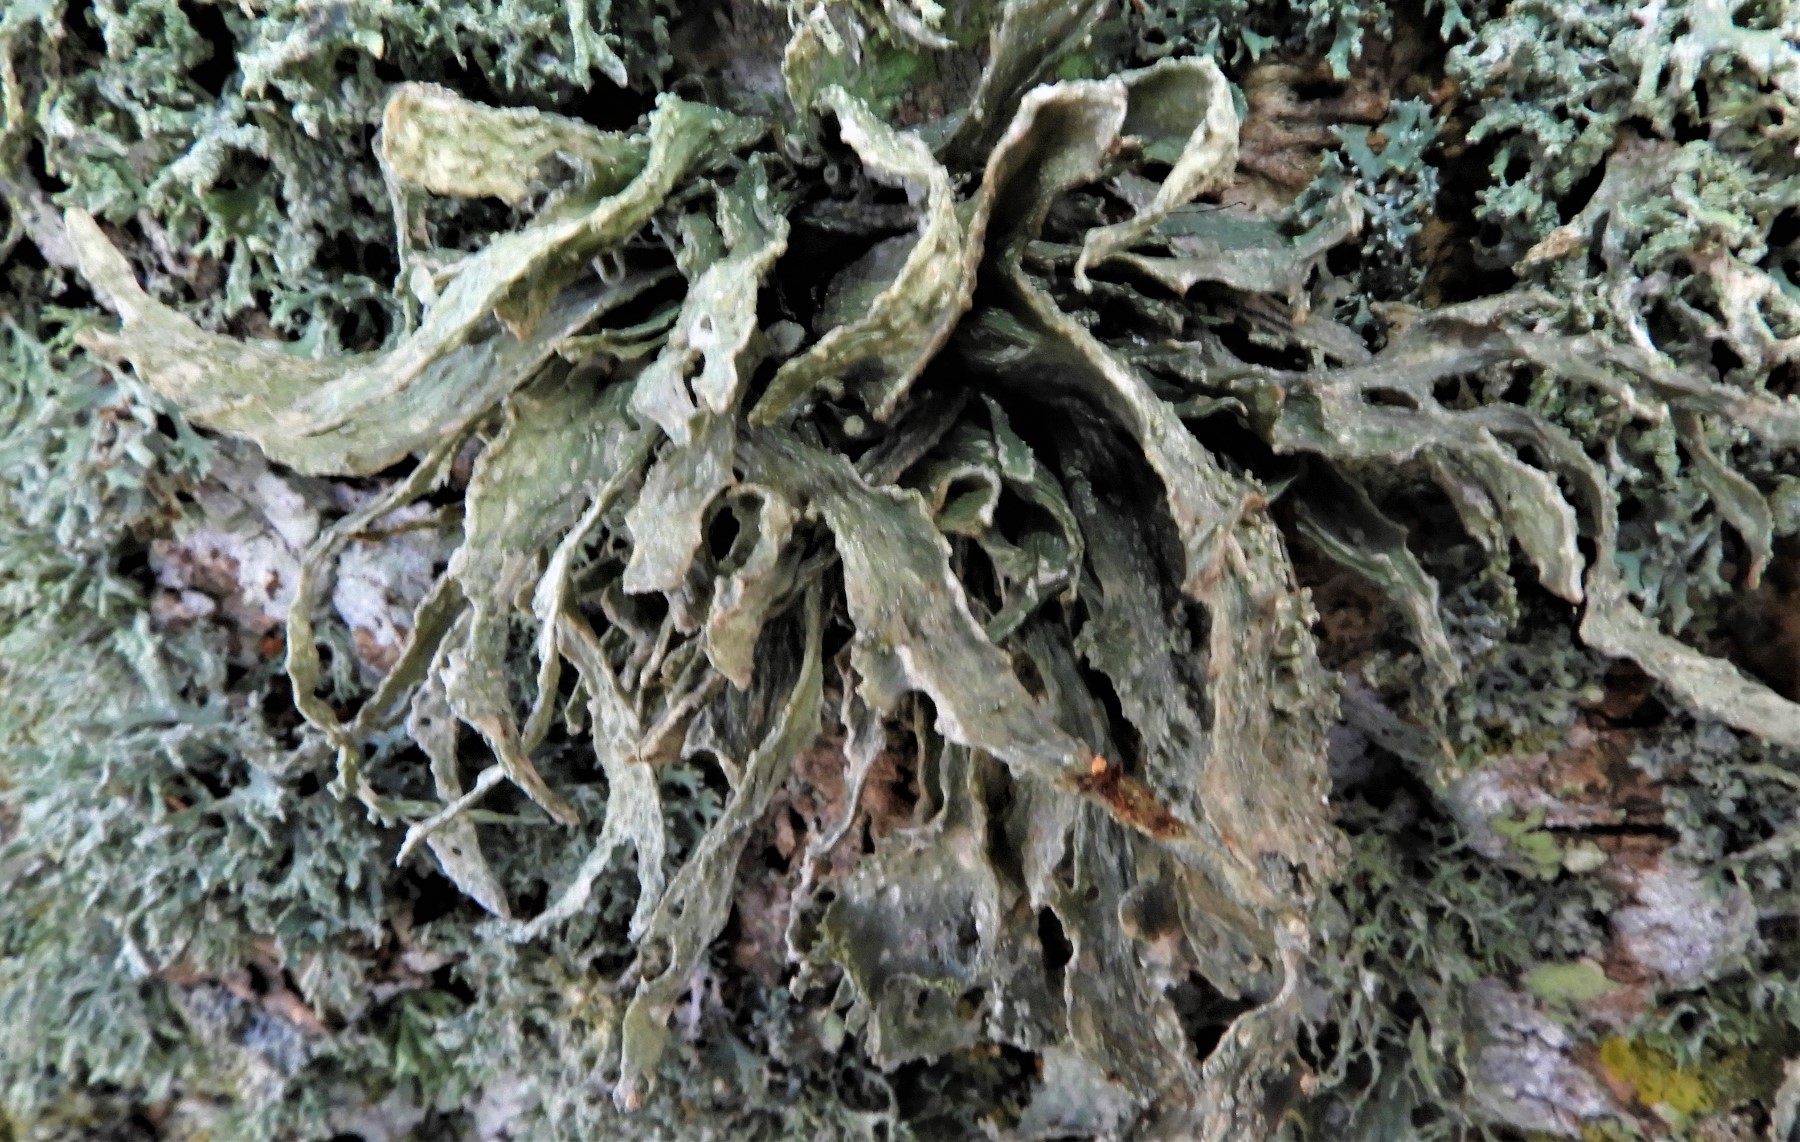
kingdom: Fungi
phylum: Ascomycota
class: Lecanoromycetes
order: Lecanorales
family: Ramalinaceae
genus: Ramalina
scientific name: Ramalina fraxinea
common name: stor grenlav
